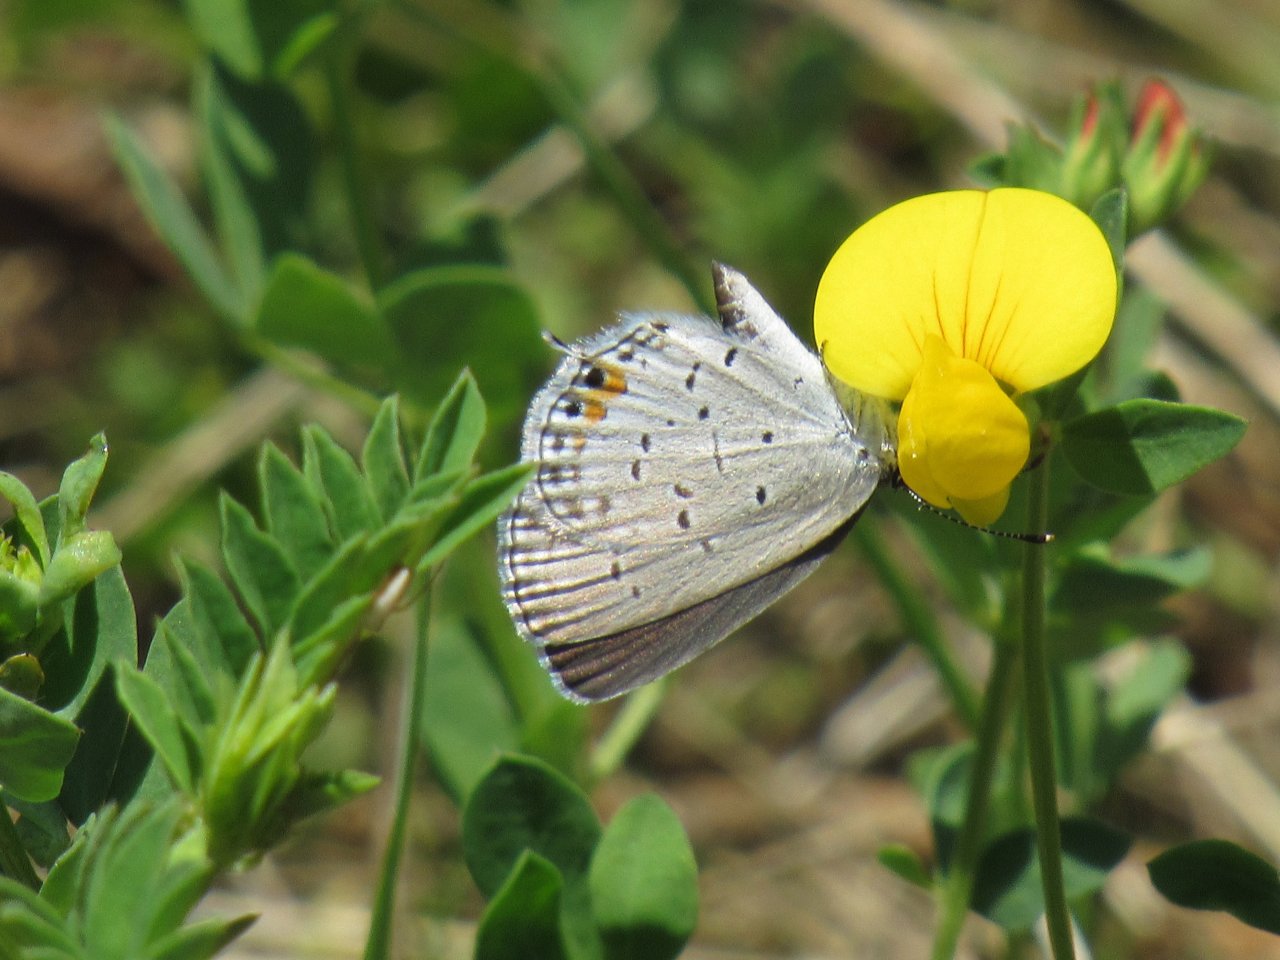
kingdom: Animalia
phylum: Arthropoda
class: Insecta
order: Lepidoptera
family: Lycaenidae
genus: Elkalyce
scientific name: Elkalyce comyntas
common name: Eastern Tailed-Blue
